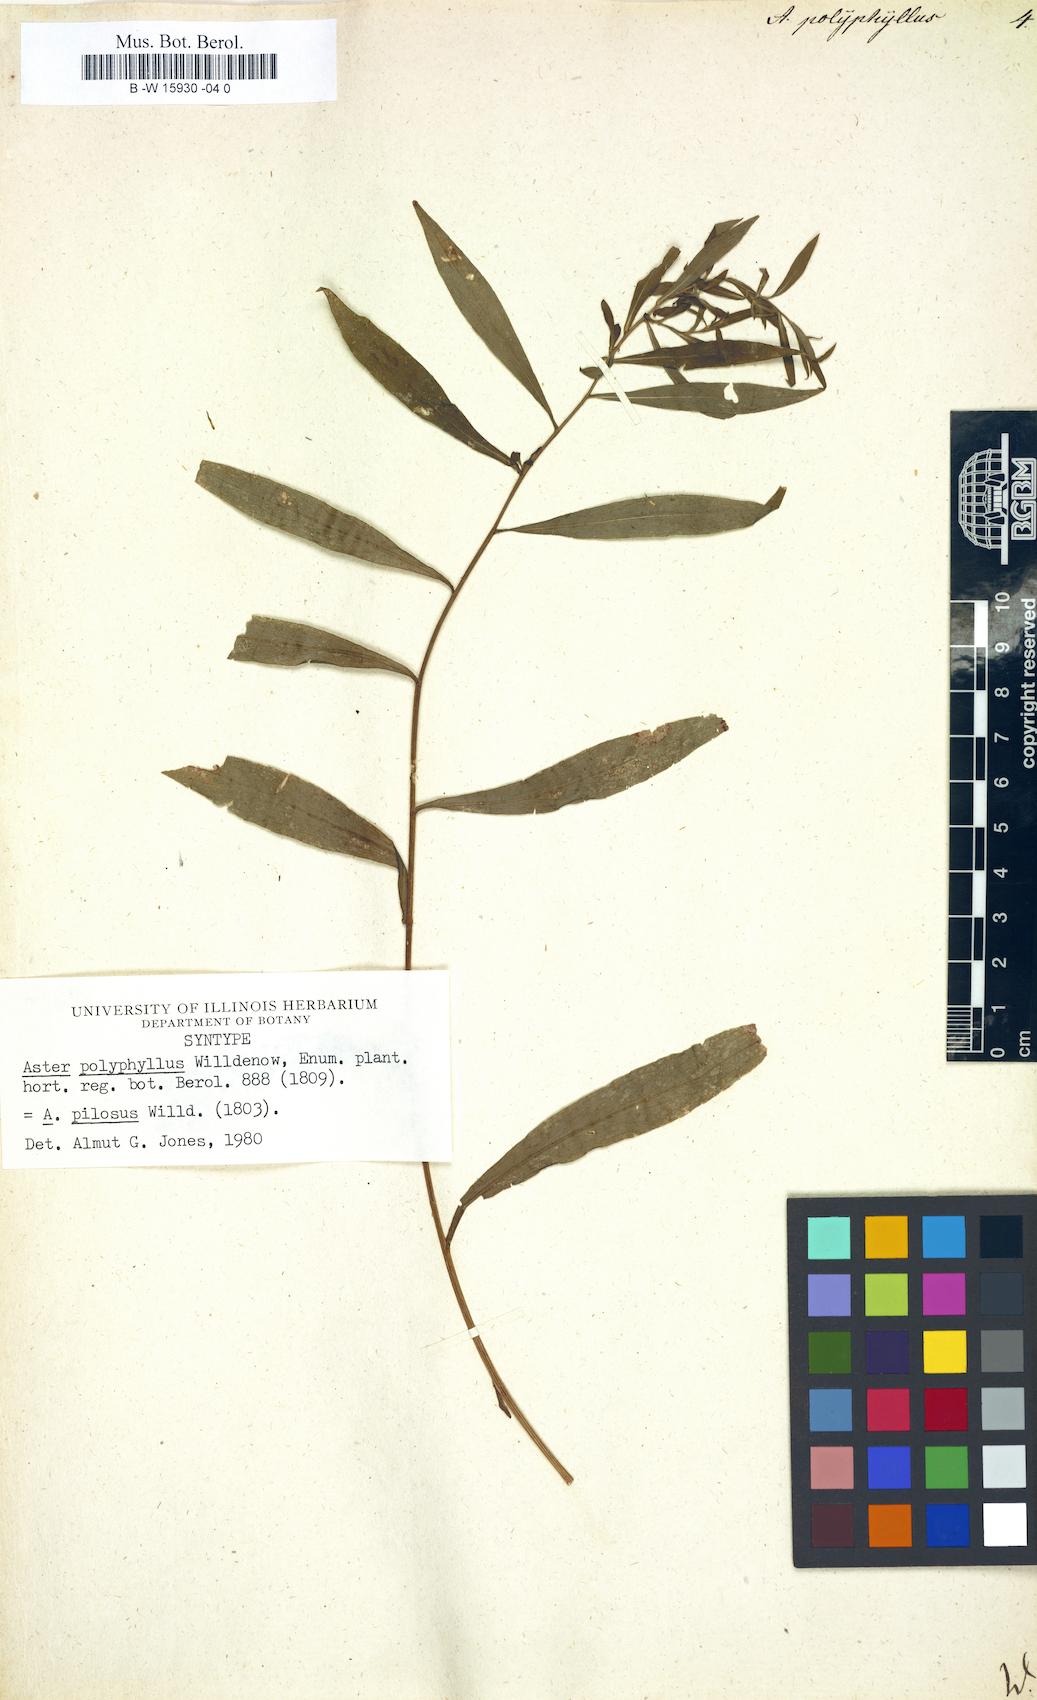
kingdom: Plantae
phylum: Tracheophyta
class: Magnoliopsida
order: Asterales
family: Asteraceae
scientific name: Asteraceae
